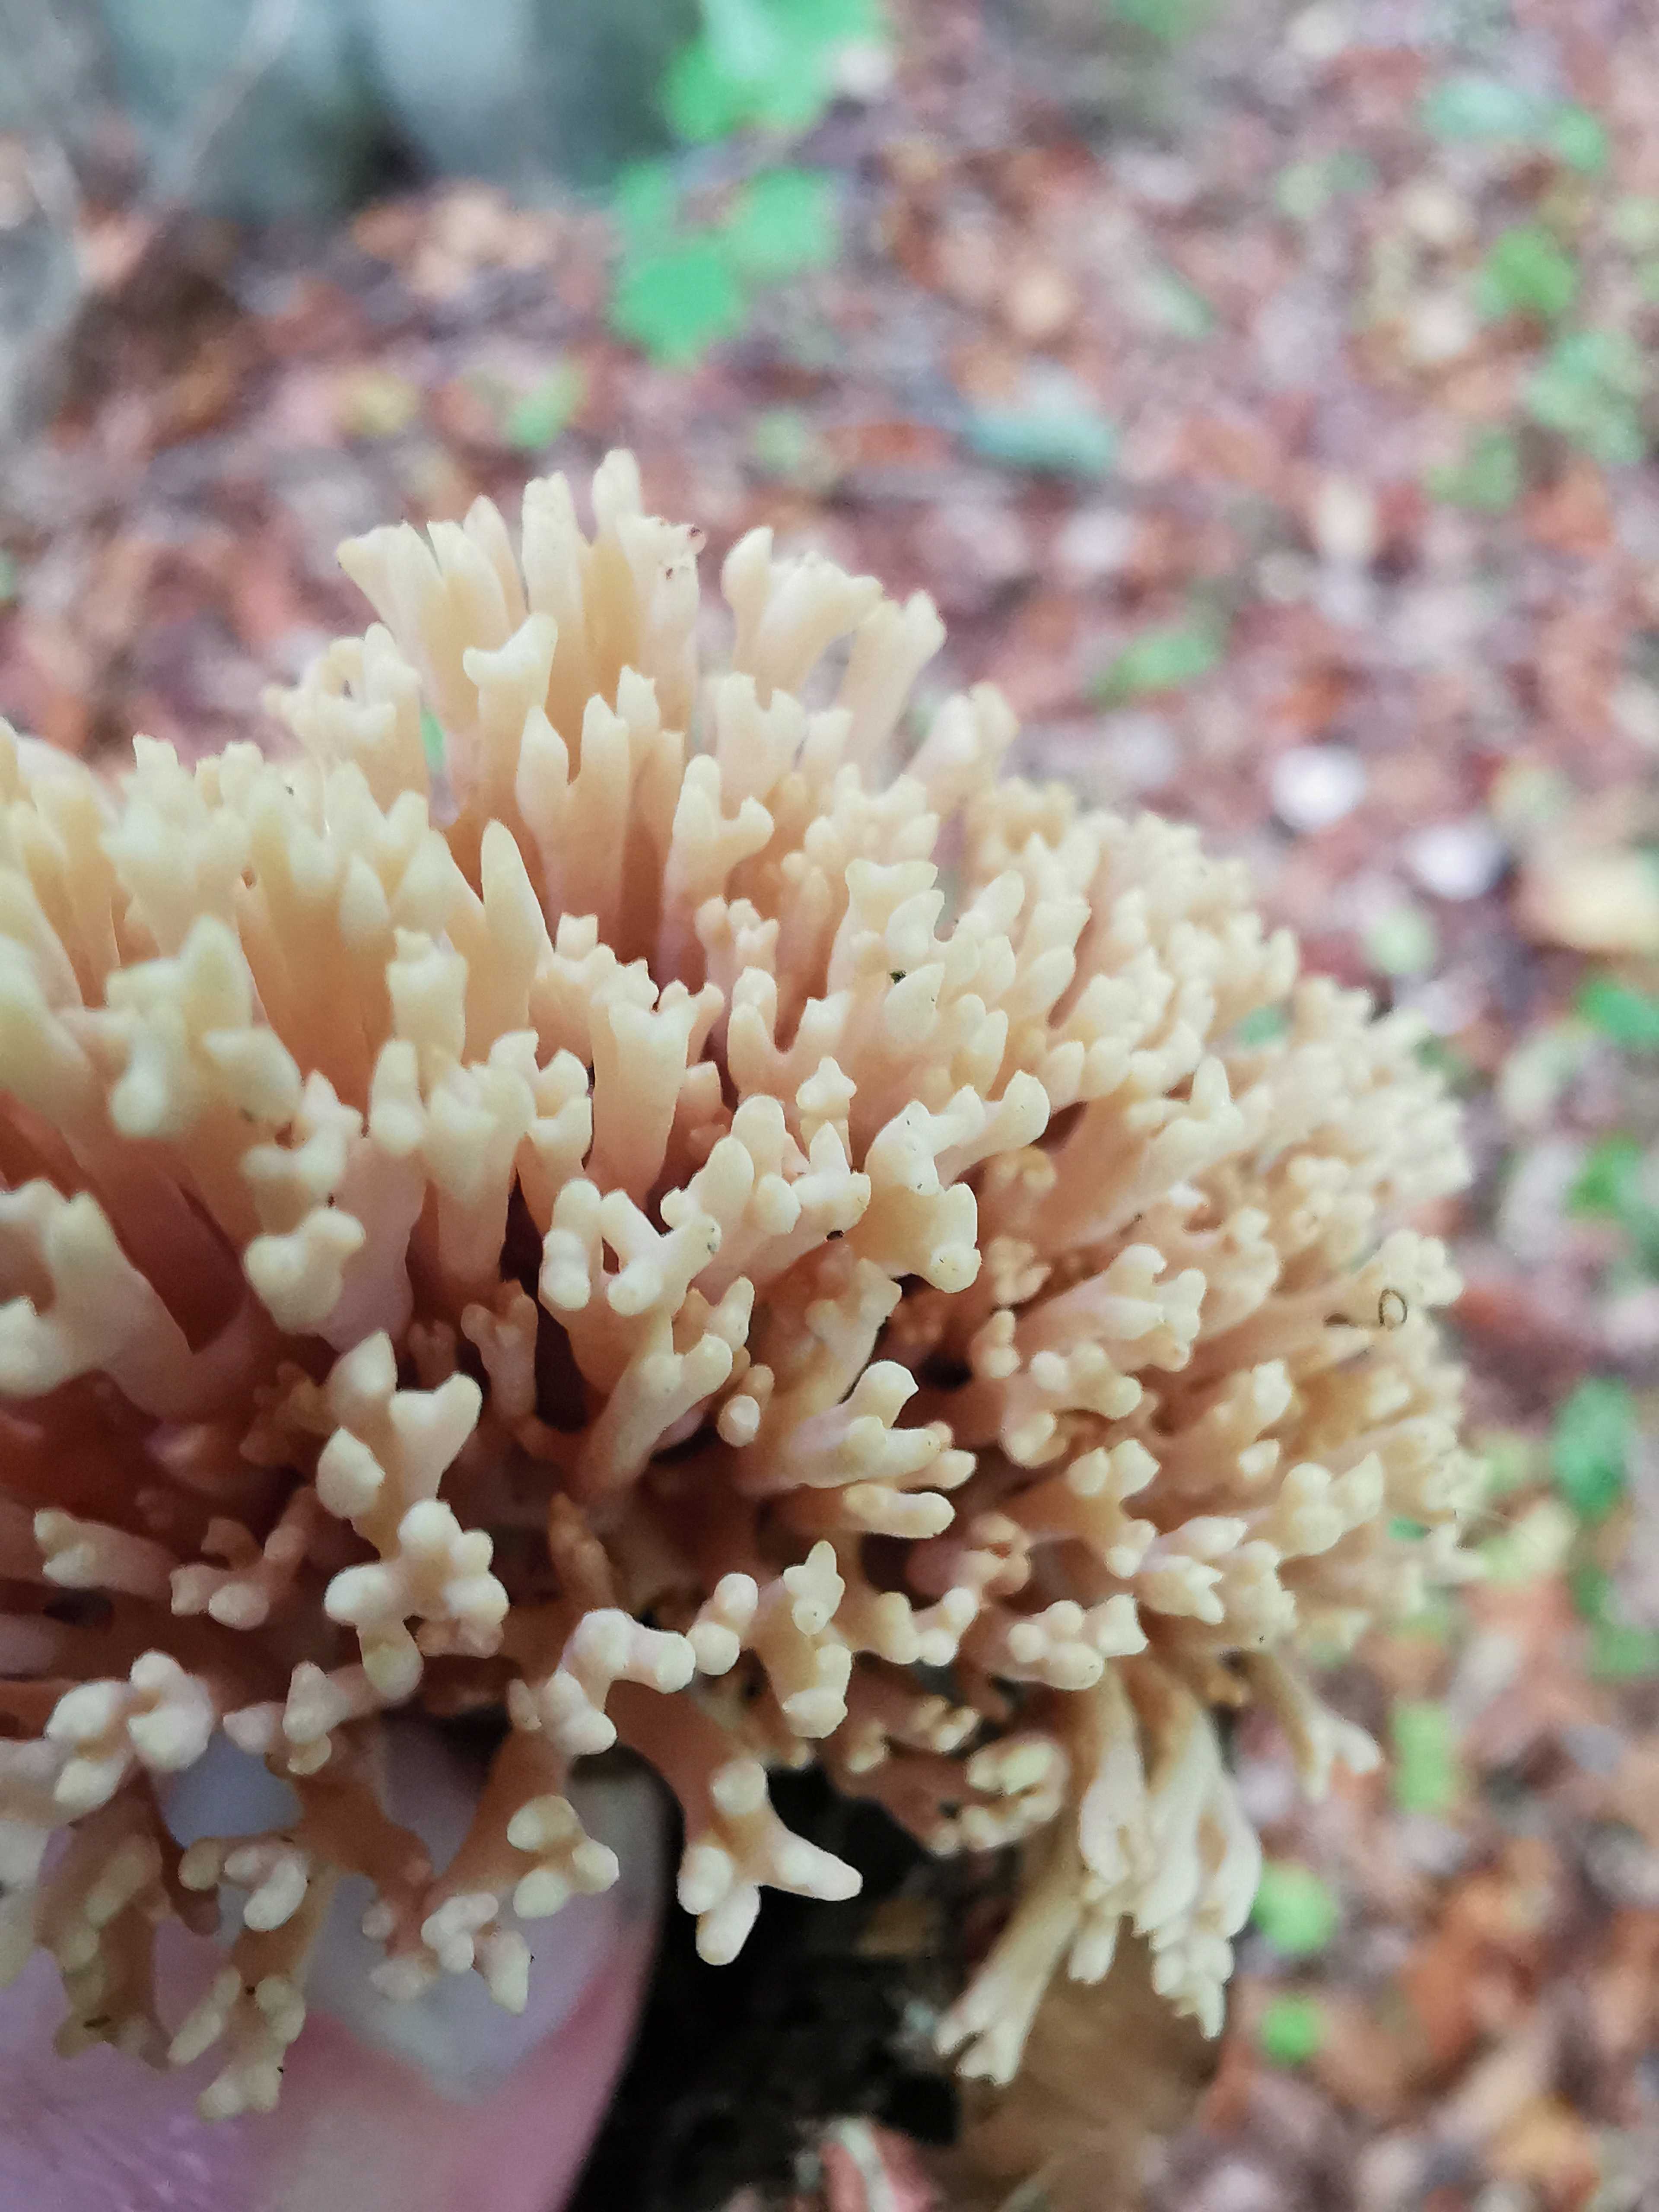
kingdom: Fungi
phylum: Basidiomycota
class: Agaricomycetes
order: Gomphales
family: Gomphaceae
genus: Ramaria
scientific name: Ramaria stricta
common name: rank koralsvamp
